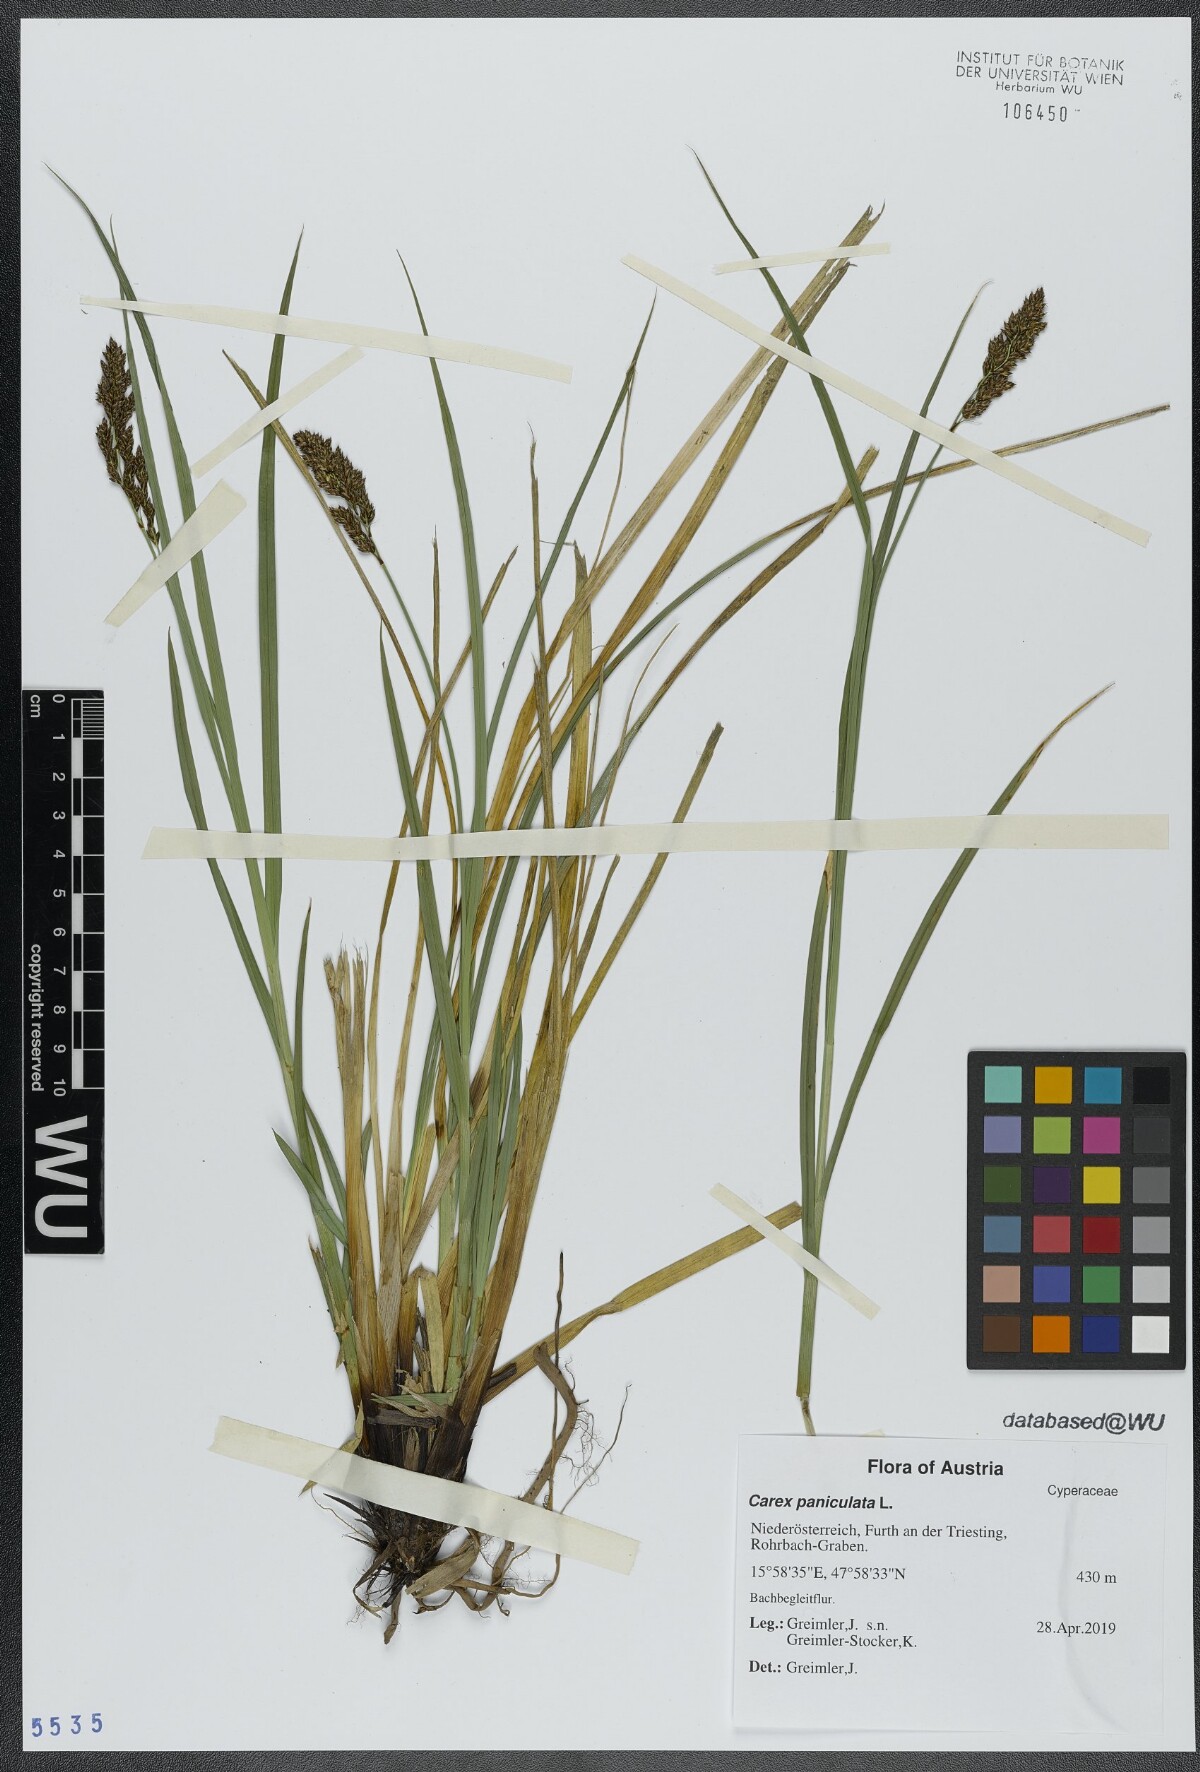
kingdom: Plantae
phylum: Tracheophyta
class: Liliopsida
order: Poales
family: Cyperaceae
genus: Carex
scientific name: Carex paniculata
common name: Greater tussock-sedge
